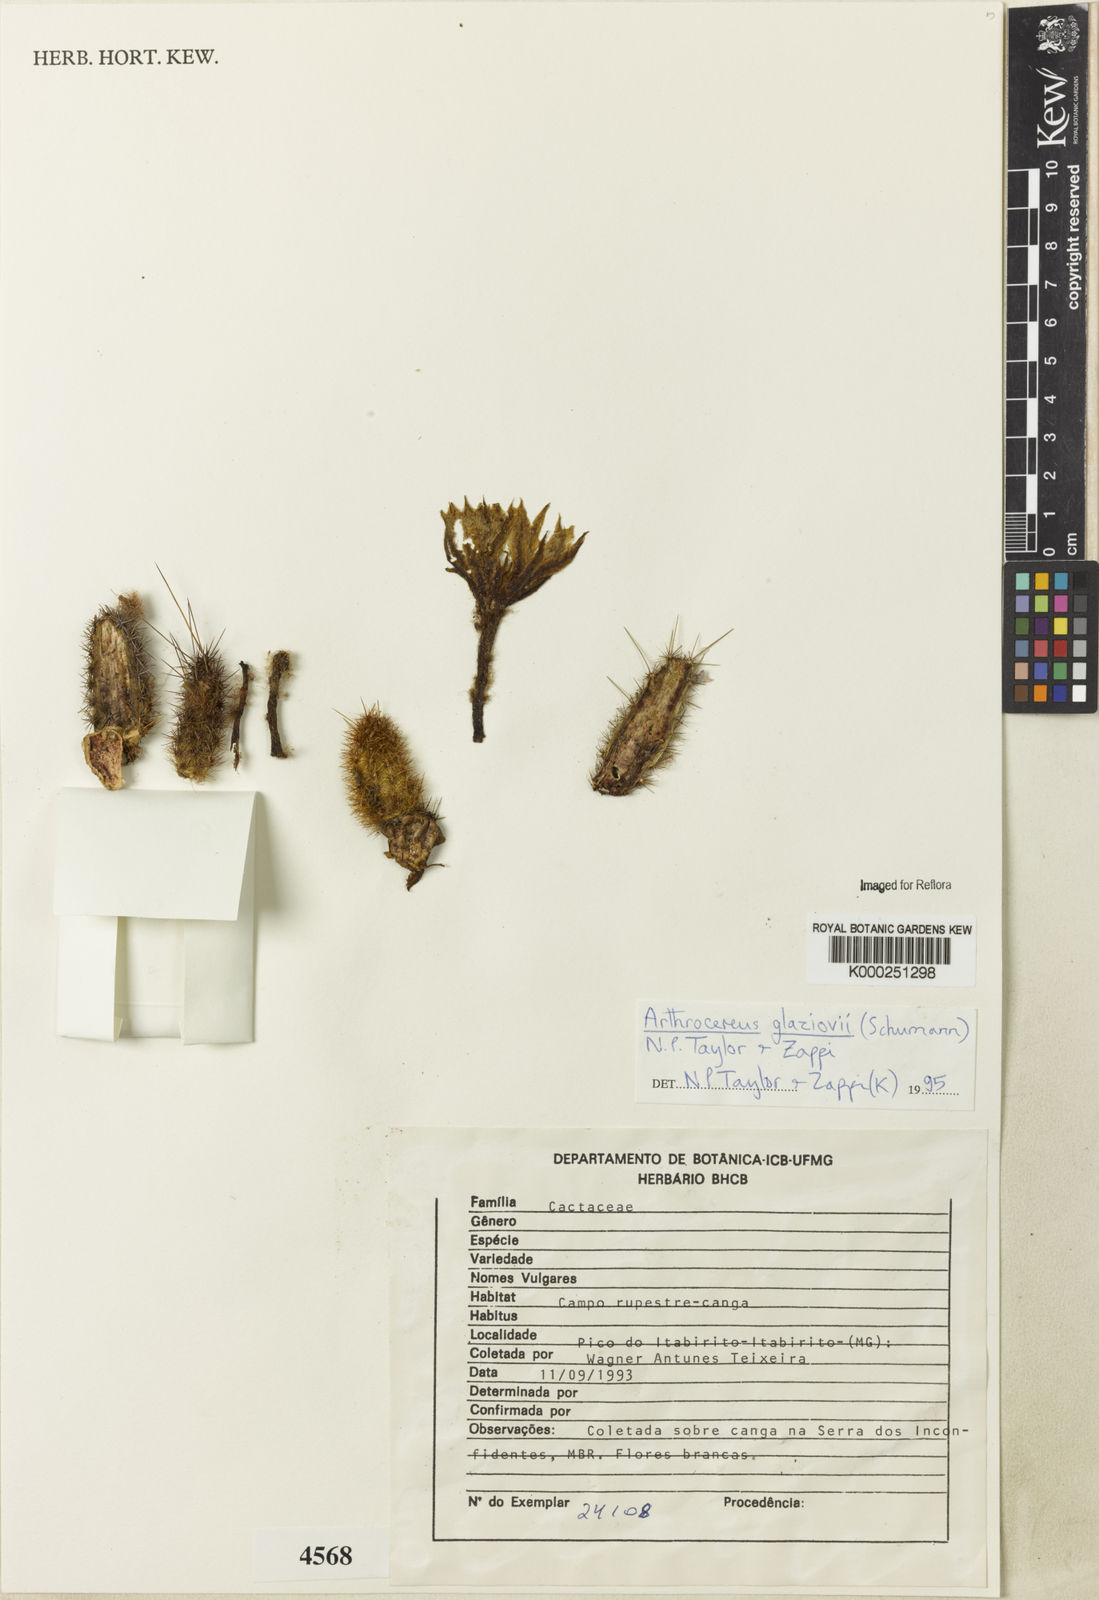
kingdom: Plantae
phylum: Tracheophyta
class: Magnoliopsida
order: Caryophyllales
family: Cactaceae
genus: Arthrocereus
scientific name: Arthrocereus glaziovii
